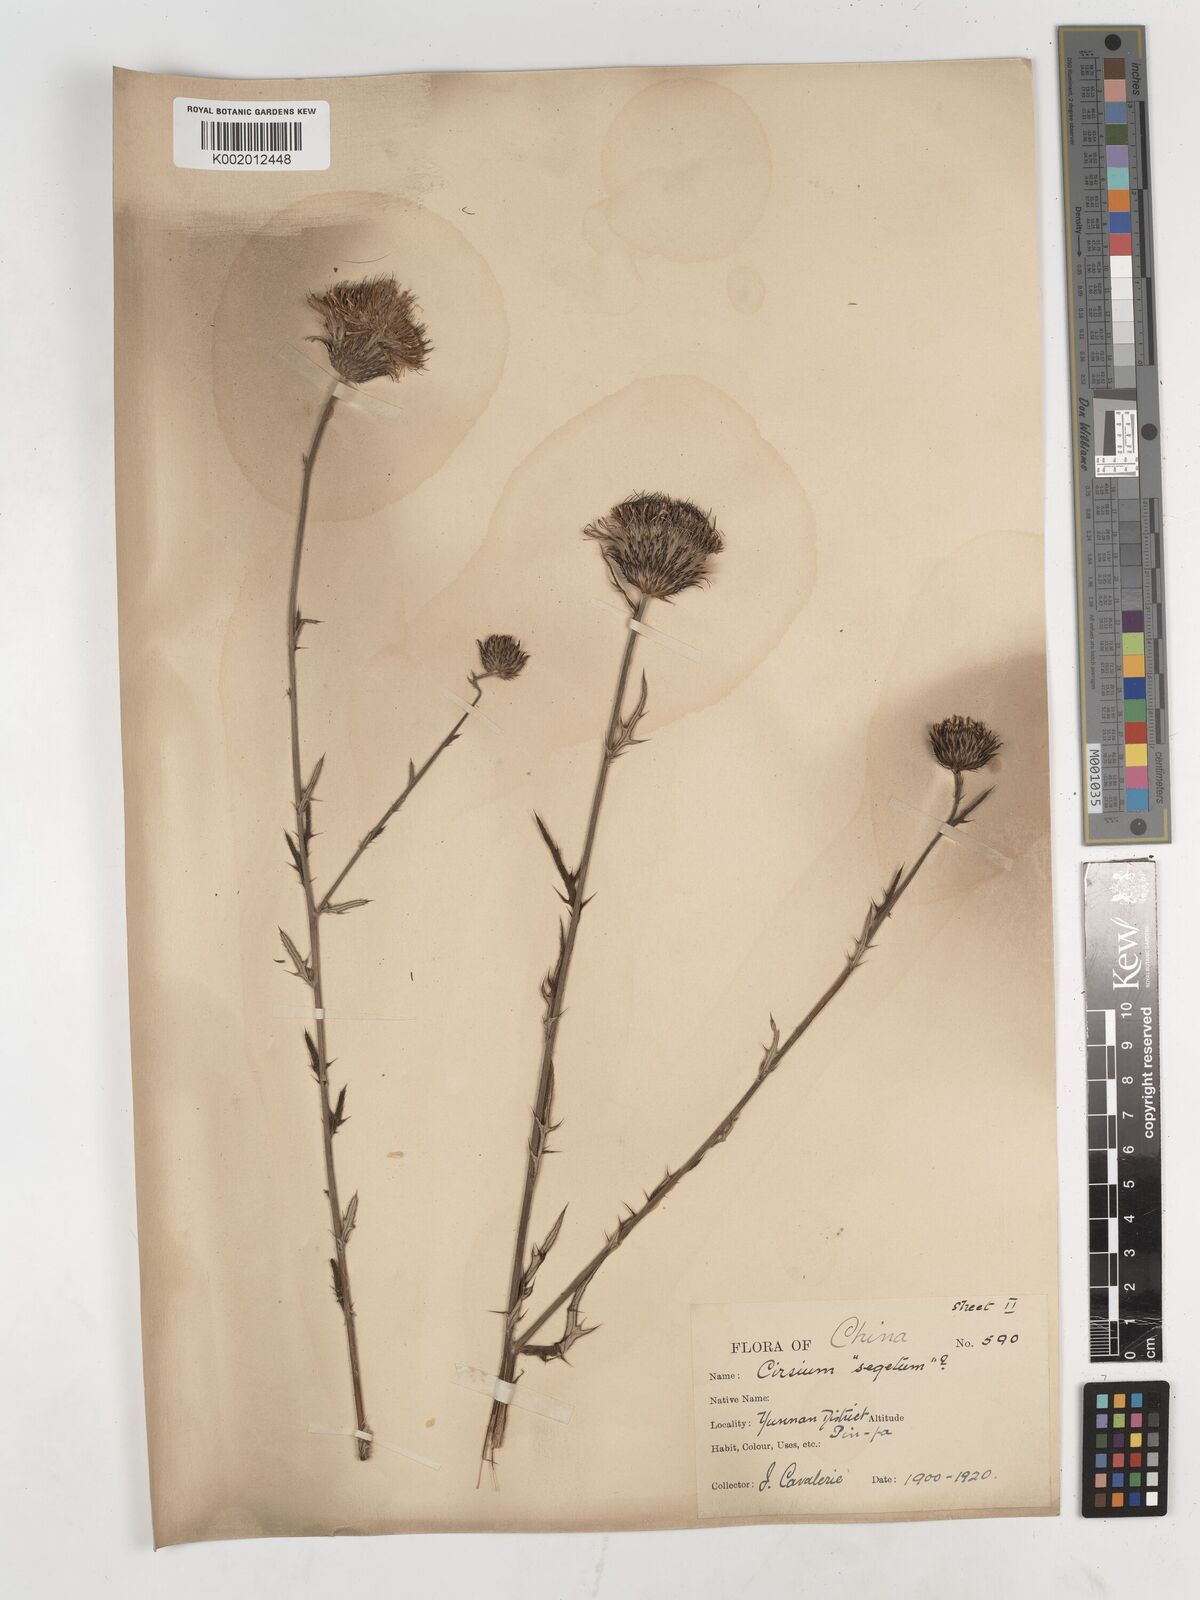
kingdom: Plantae
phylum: Tracheophyta
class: Magnoliopsida
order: Asterales
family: Asteraceae
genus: Lophiolepis
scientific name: Lophiolepis veruta
